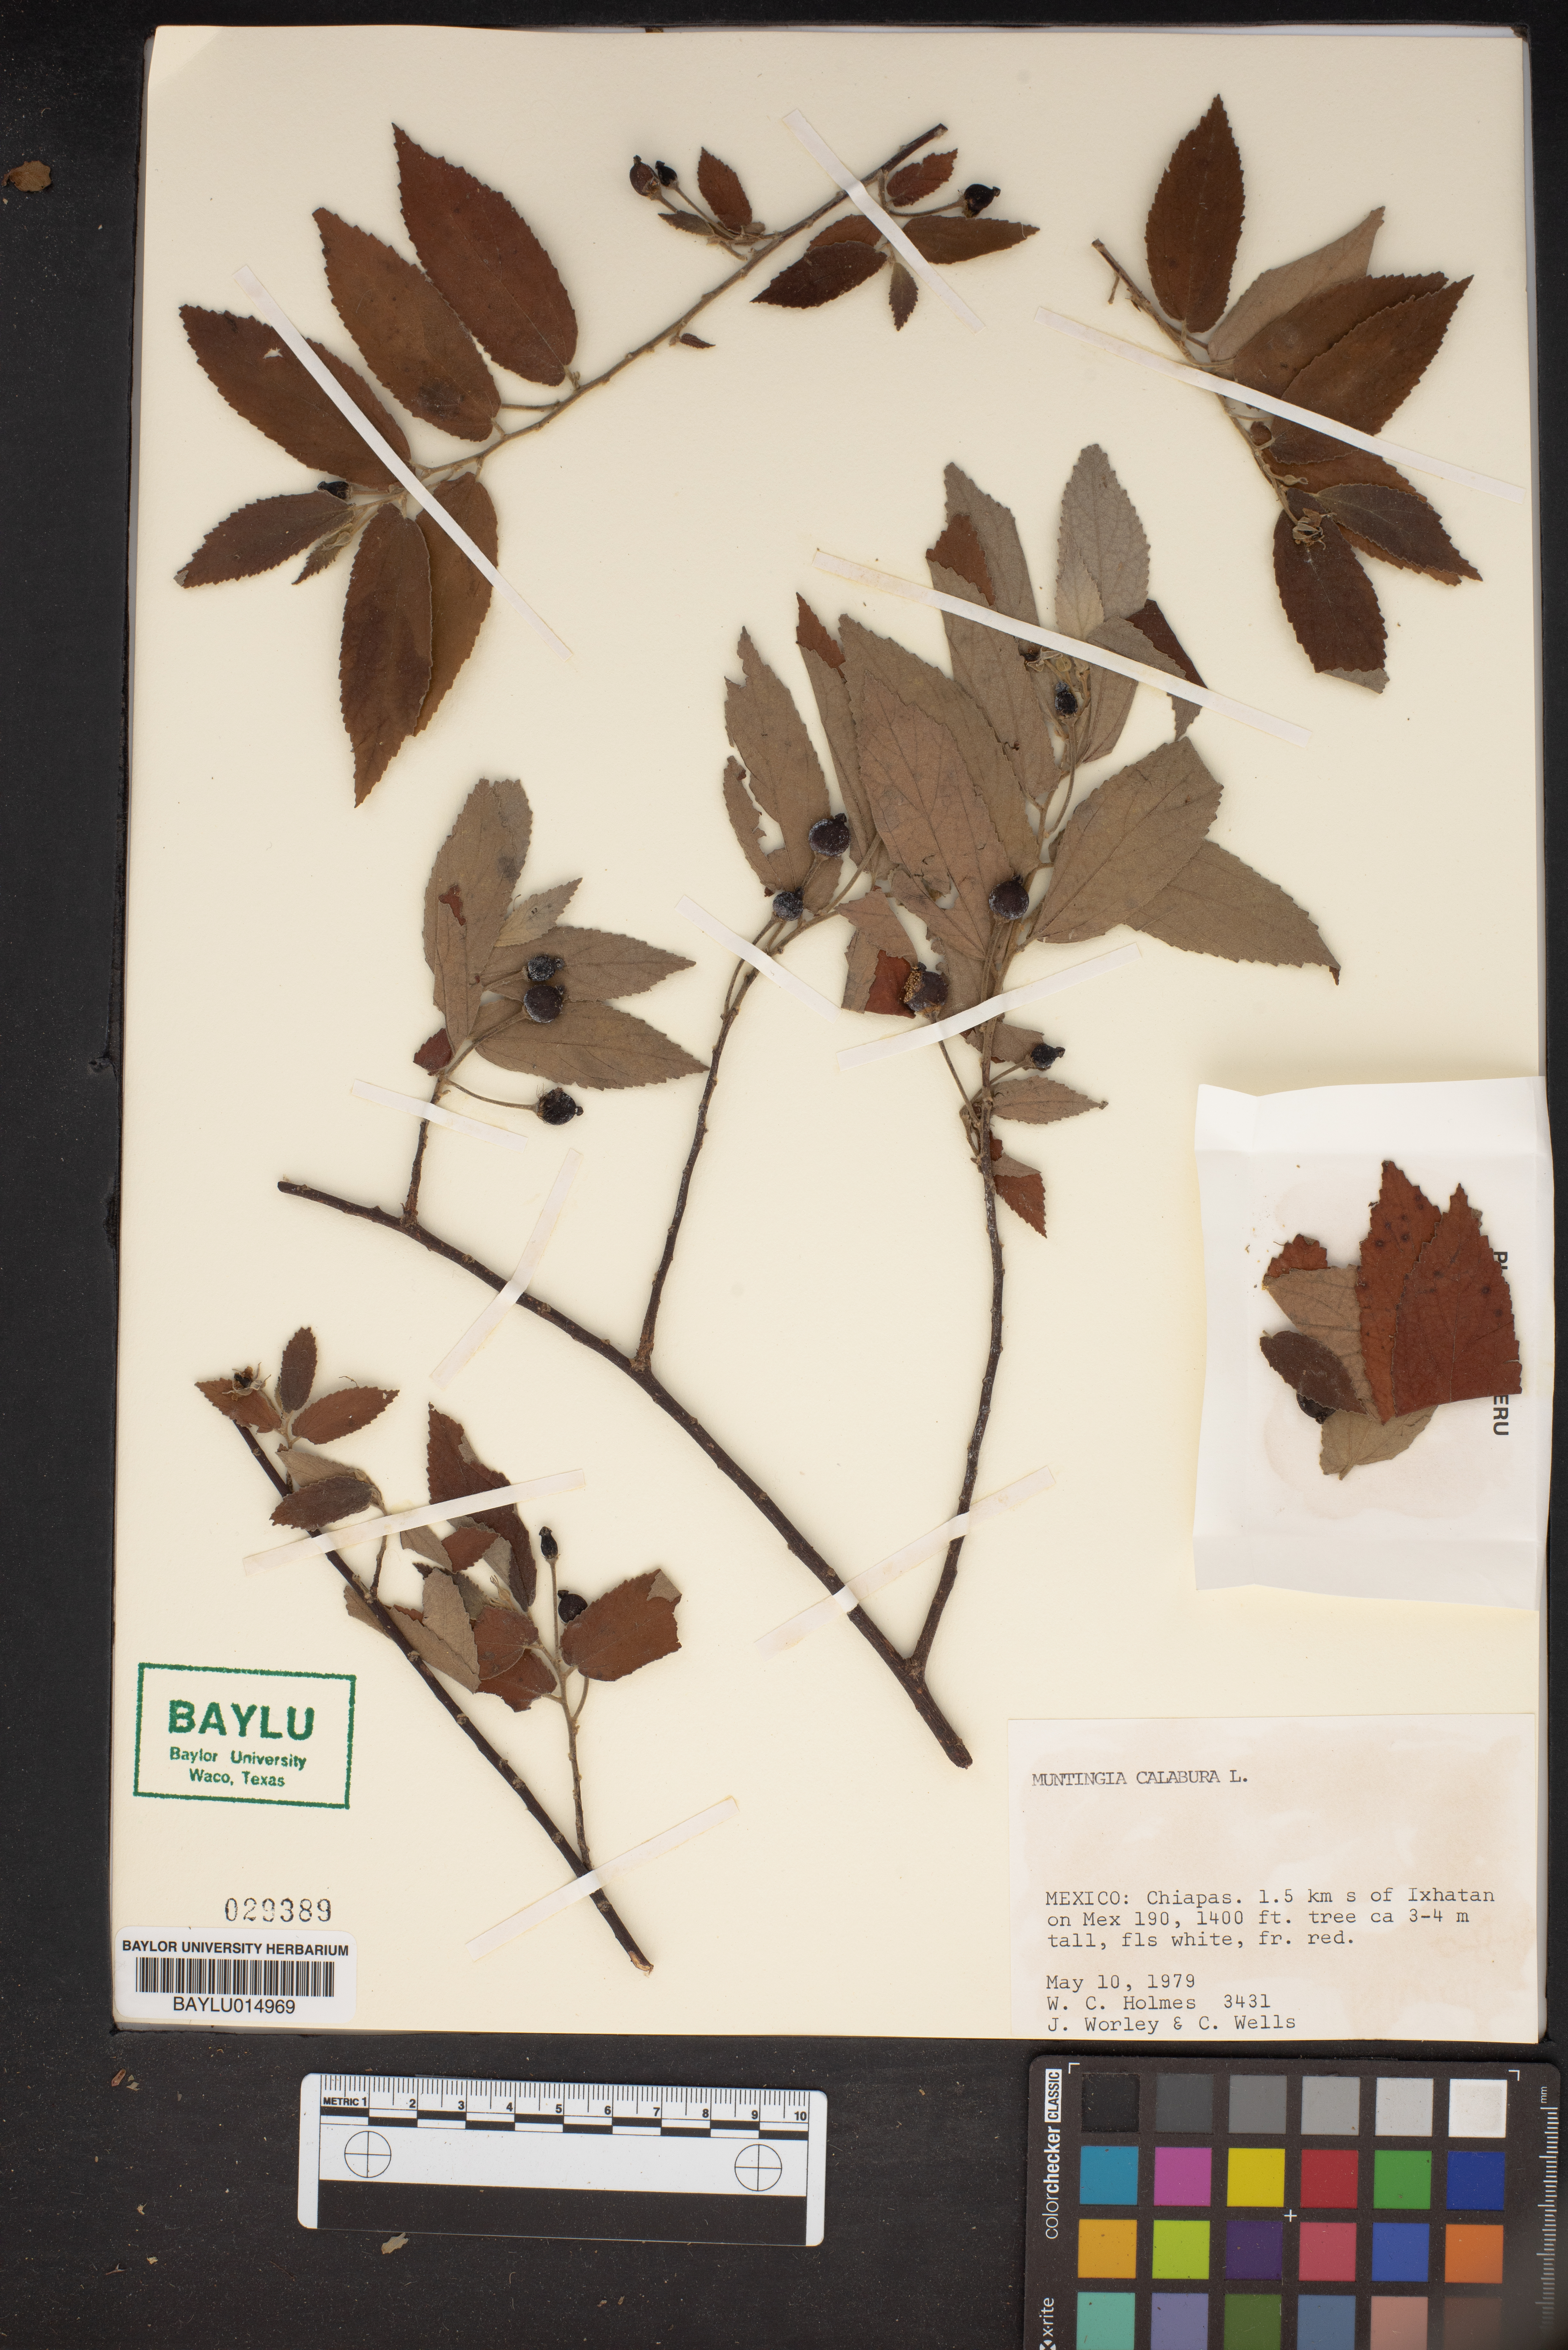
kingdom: Plantae
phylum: Tracheophyta
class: Magnoliopsida
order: Malvales
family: Muntingiaceae
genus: Muntingia
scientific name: Muntingia calabura
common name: Strawberrytree
